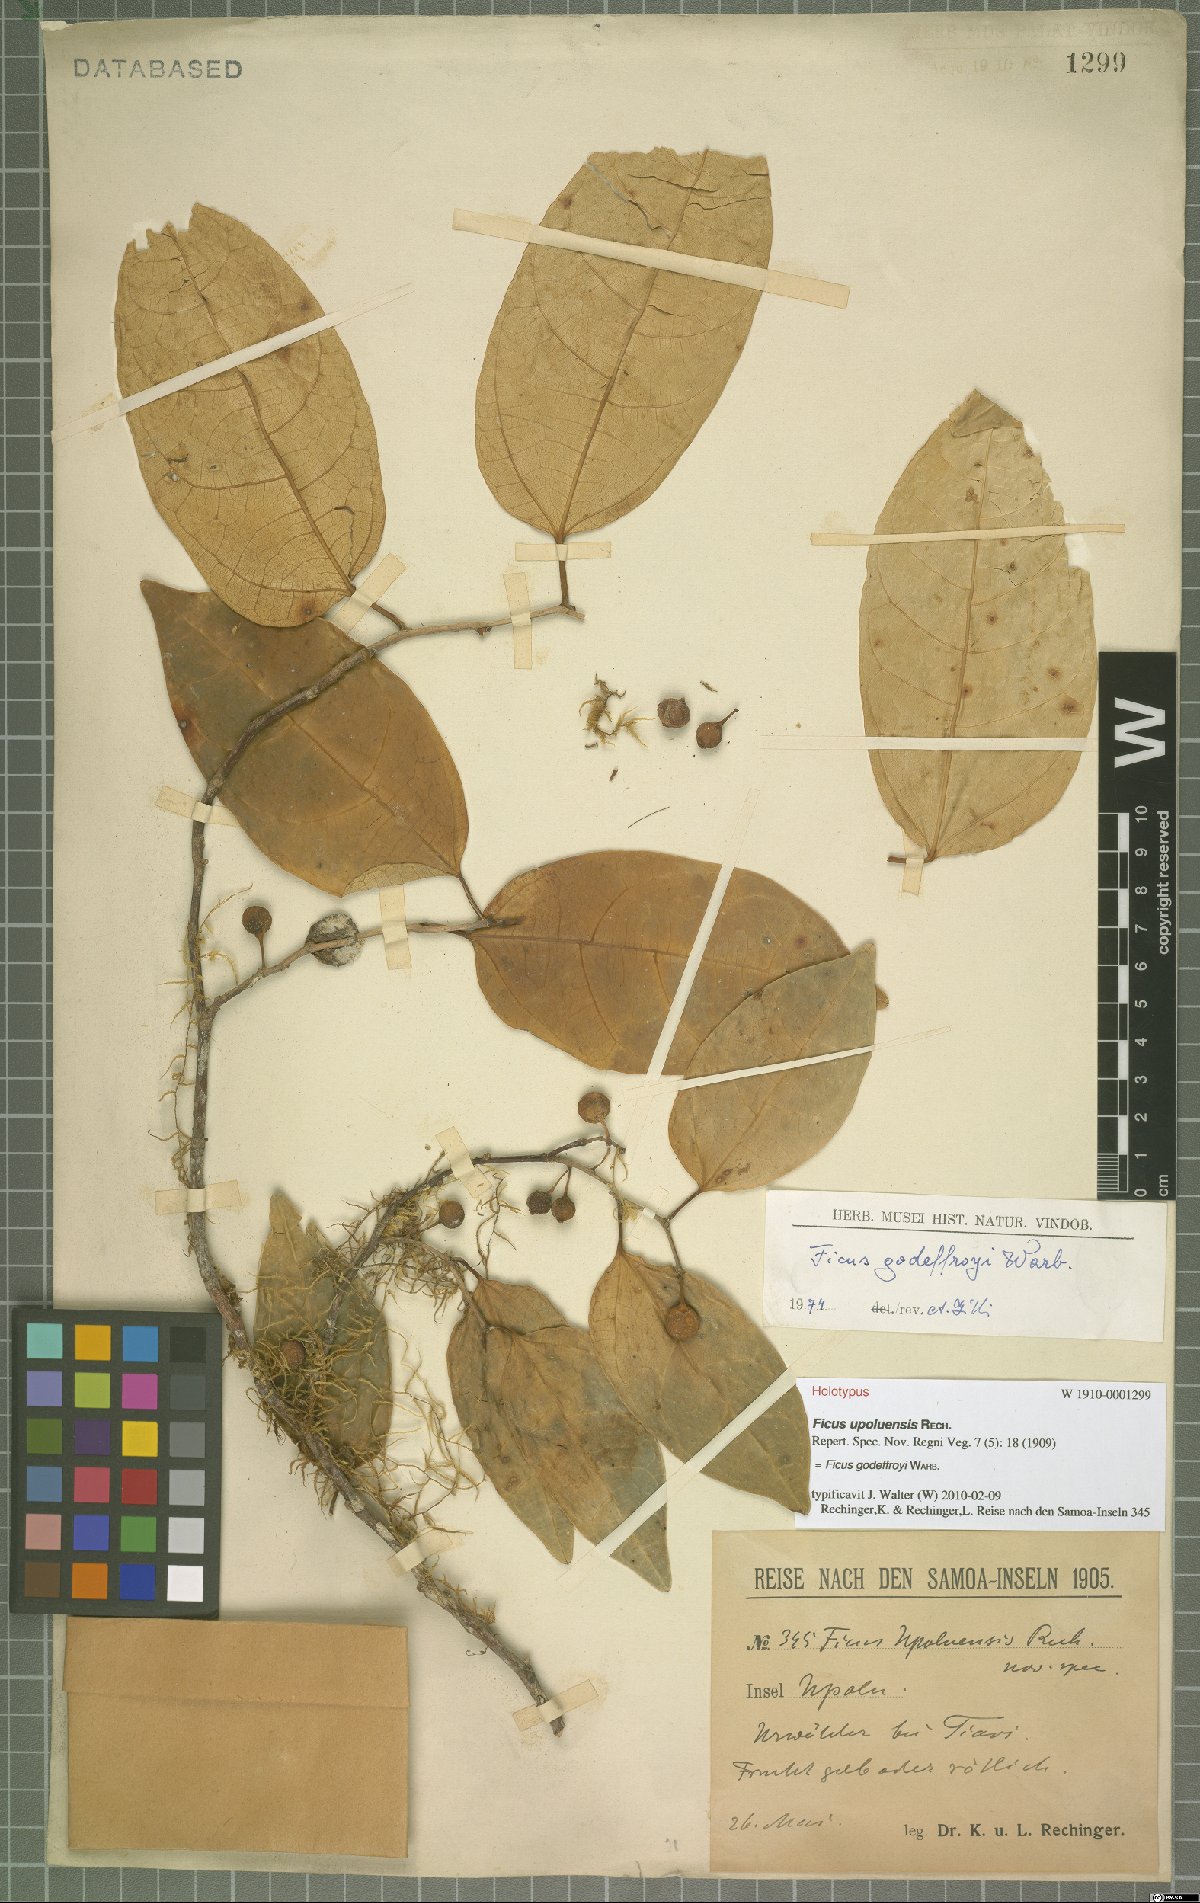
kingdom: Plantae
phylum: Tracheophyta
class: Magnoliopsida
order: Rosales
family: Moraceae
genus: Ficus
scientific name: Ficus godeffroyi
